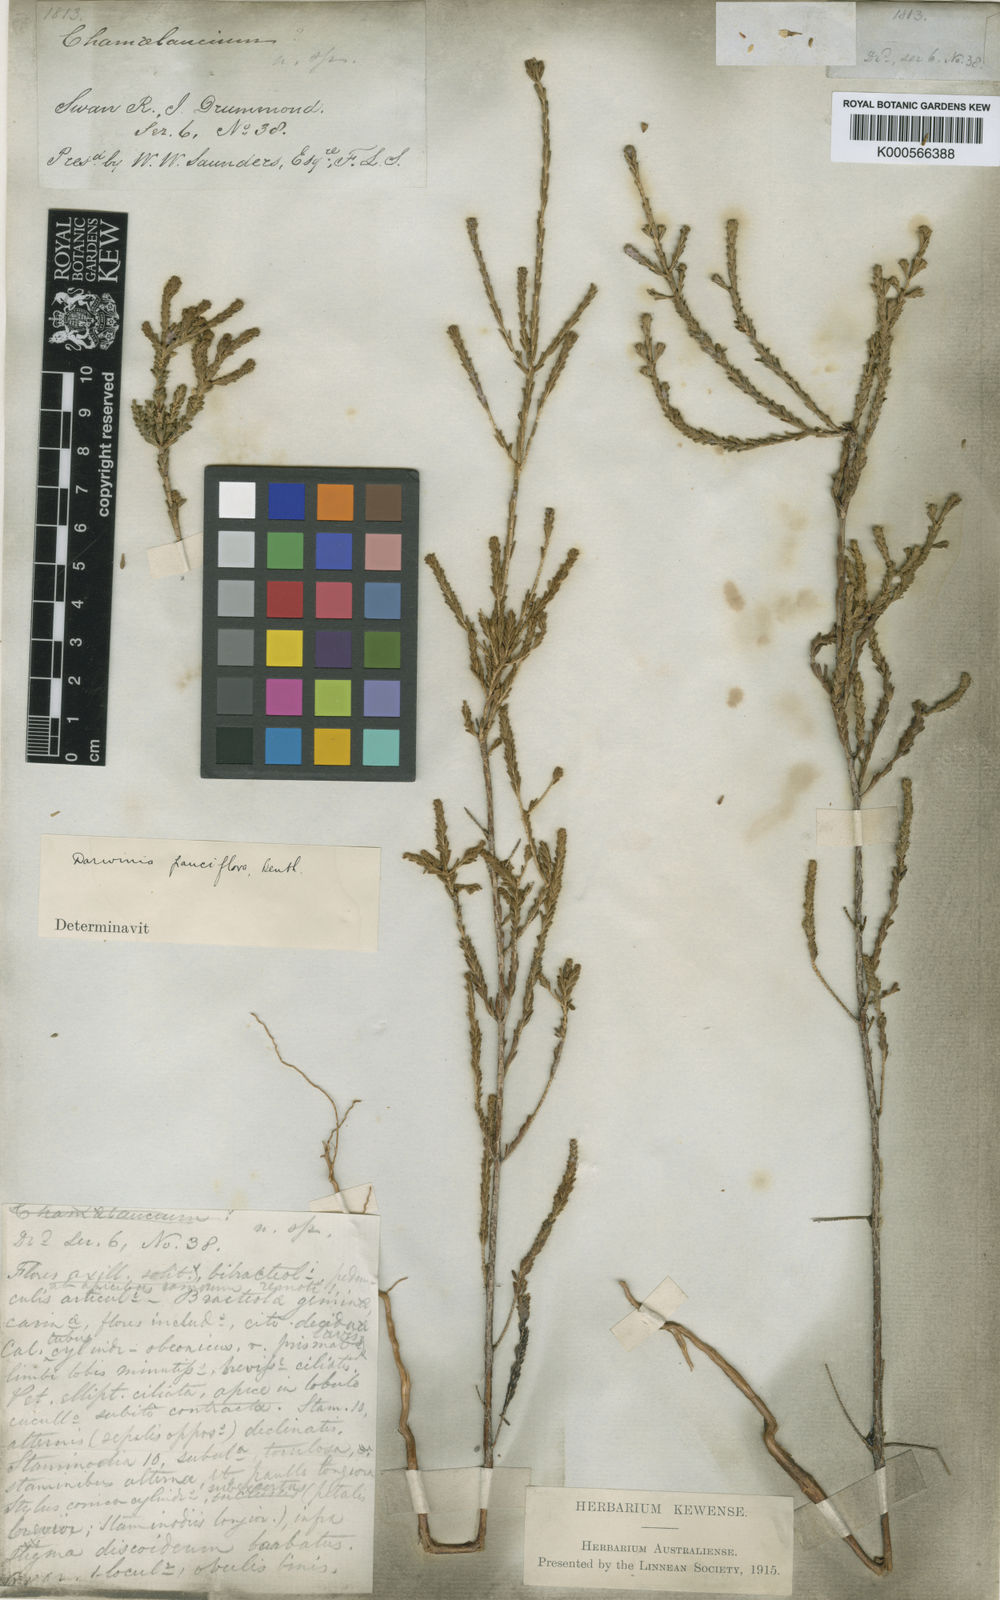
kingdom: Plantae
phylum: Tracheophyta
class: Magnoliopsida
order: Myrtales
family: Myrtaceae
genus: Darwinia
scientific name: Darwinia pauciflora
